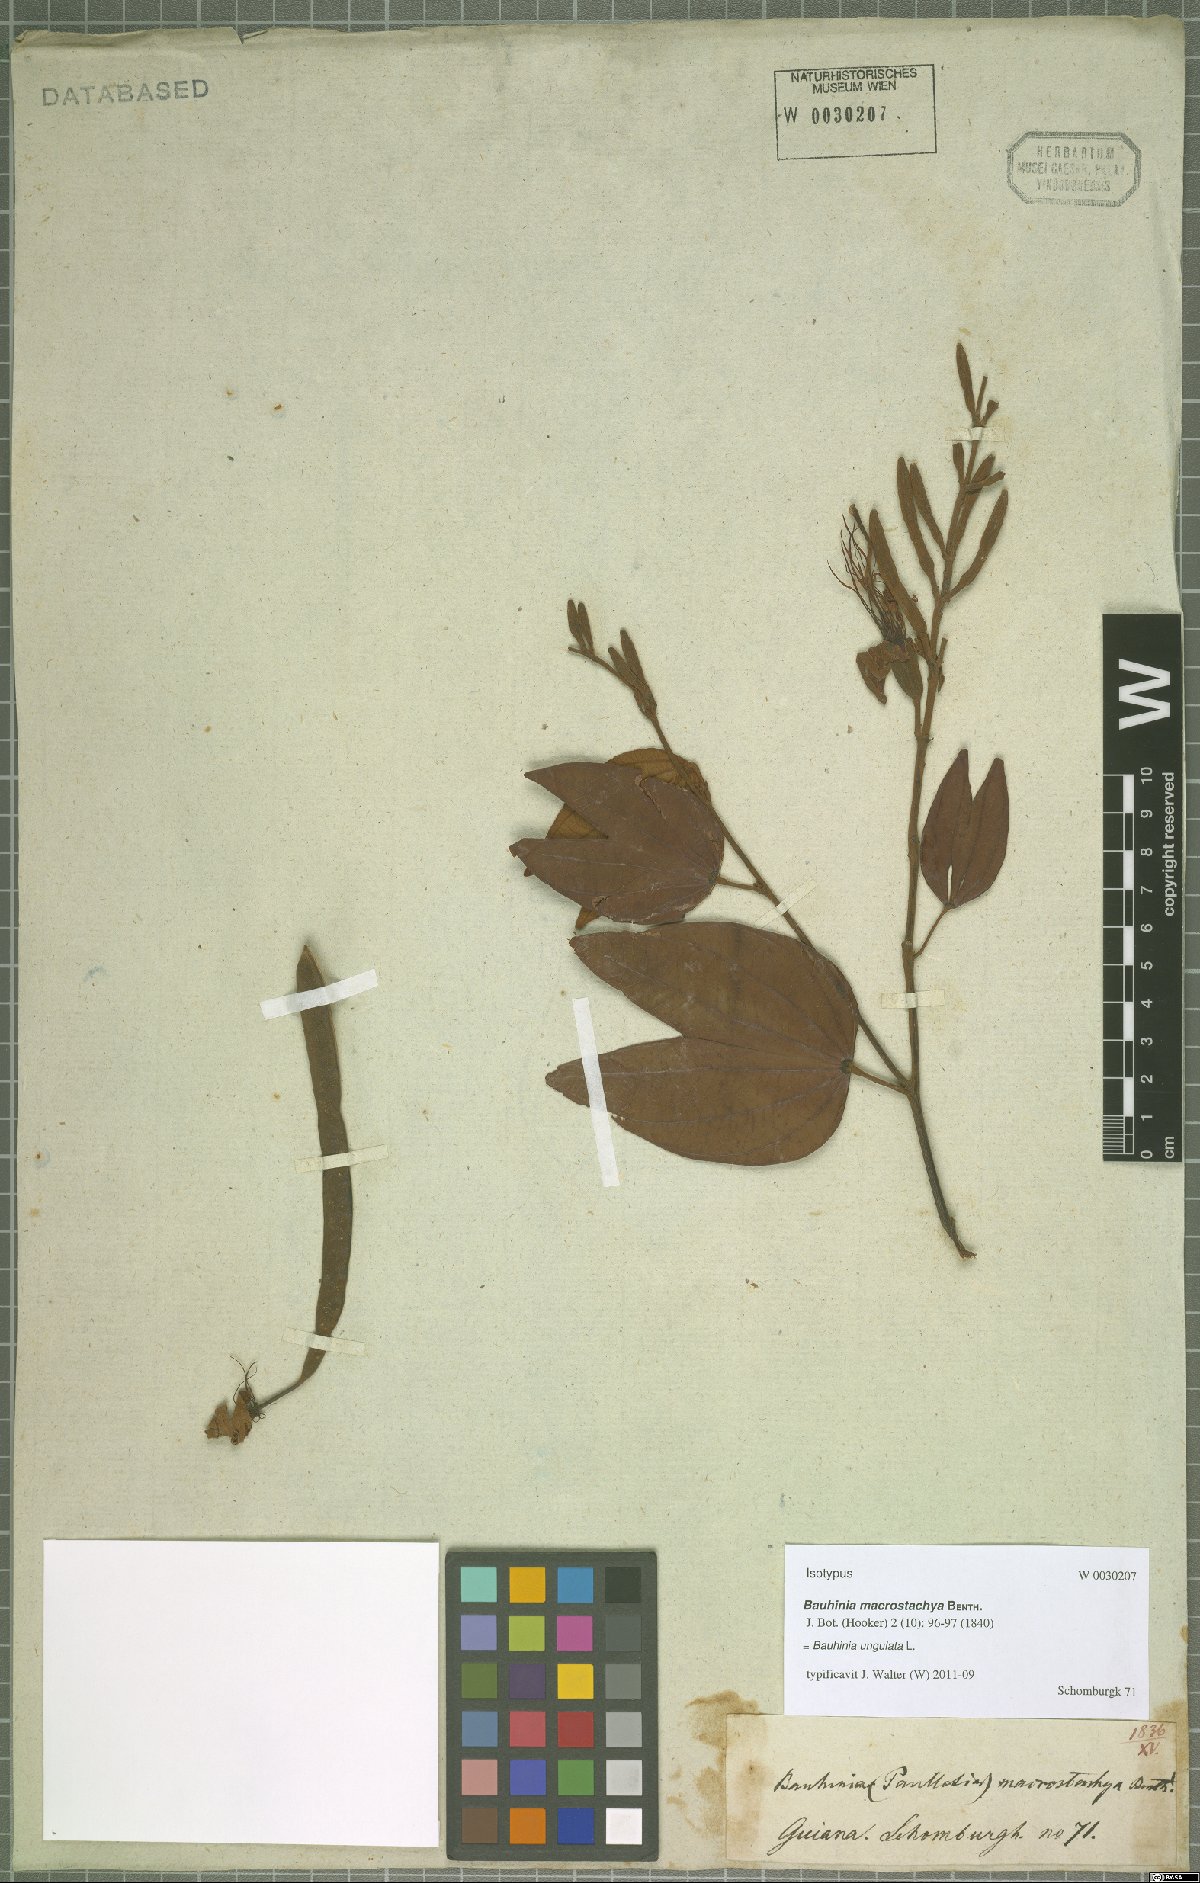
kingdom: Plantae
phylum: Tracheophyta
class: Magnoliopsida
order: Fabales
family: Fabaceae
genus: Bauhinia
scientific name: Bauhinia ungulata
